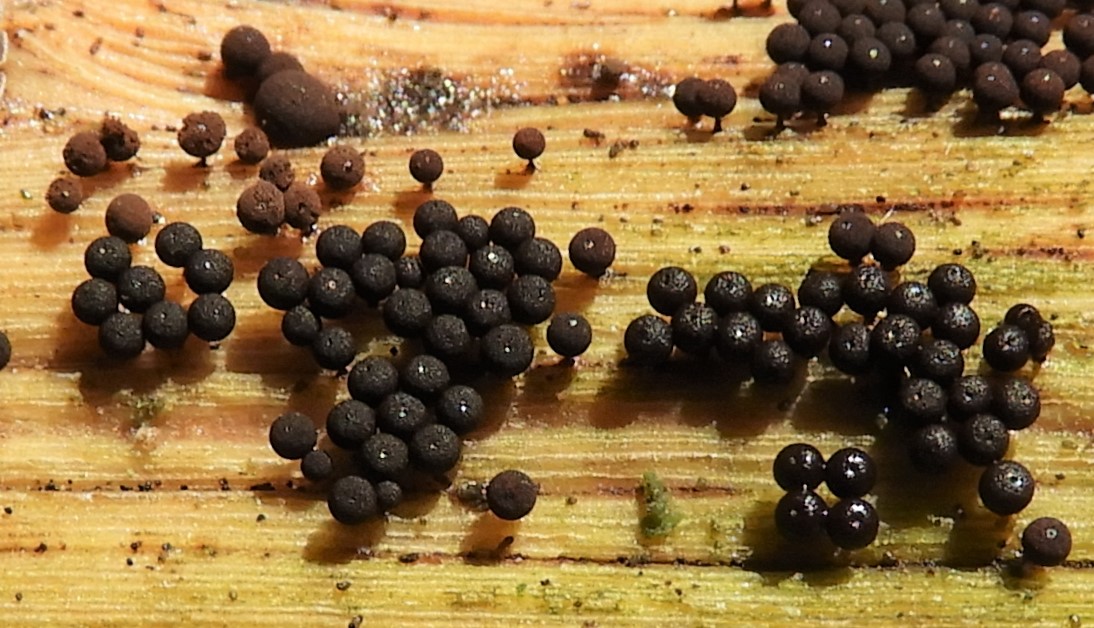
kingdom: Protozoa
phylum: Mycetozoa
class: Myxomycetes
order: Stemonitidales
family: Stemonitidaceae
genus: Enerthenema
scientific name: Enerthenema papillatum
